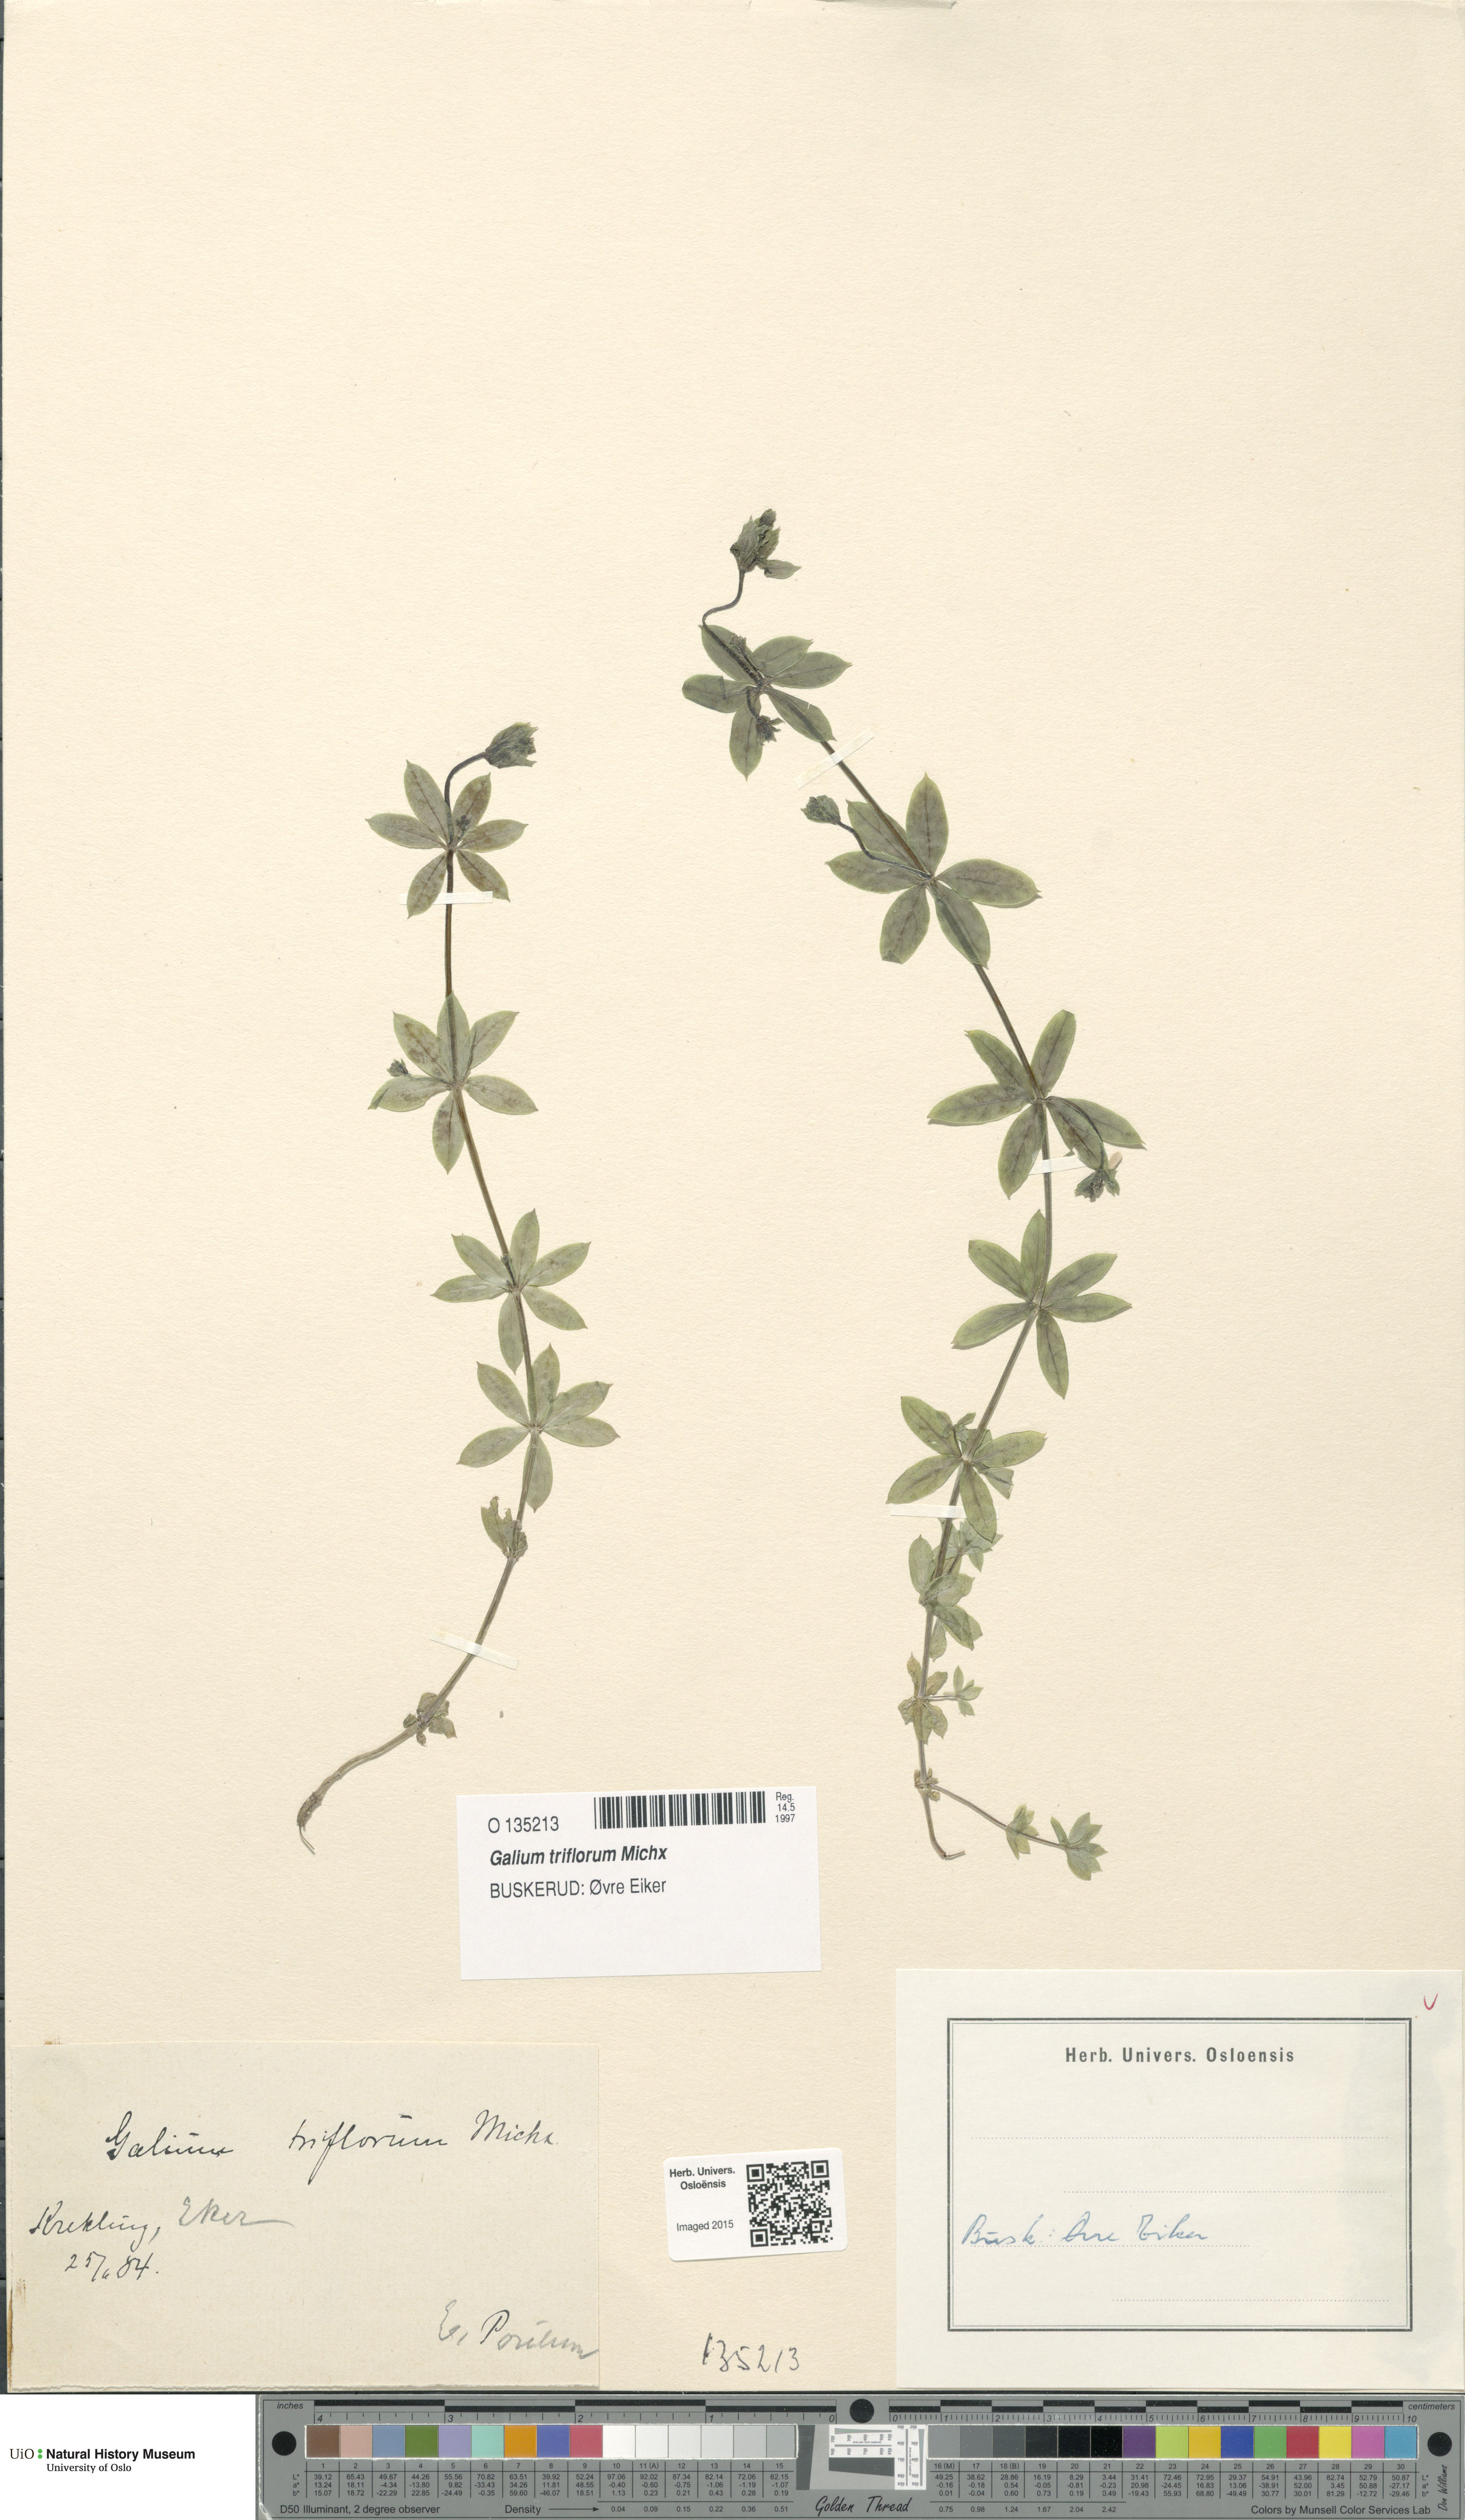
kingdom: Plantae
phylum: Tracheophyta
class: Magnoliopsida
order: Gentianales
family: Rubiaceae
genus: Galium
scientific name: Galium triflorum
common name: Fragrant bedstraw
